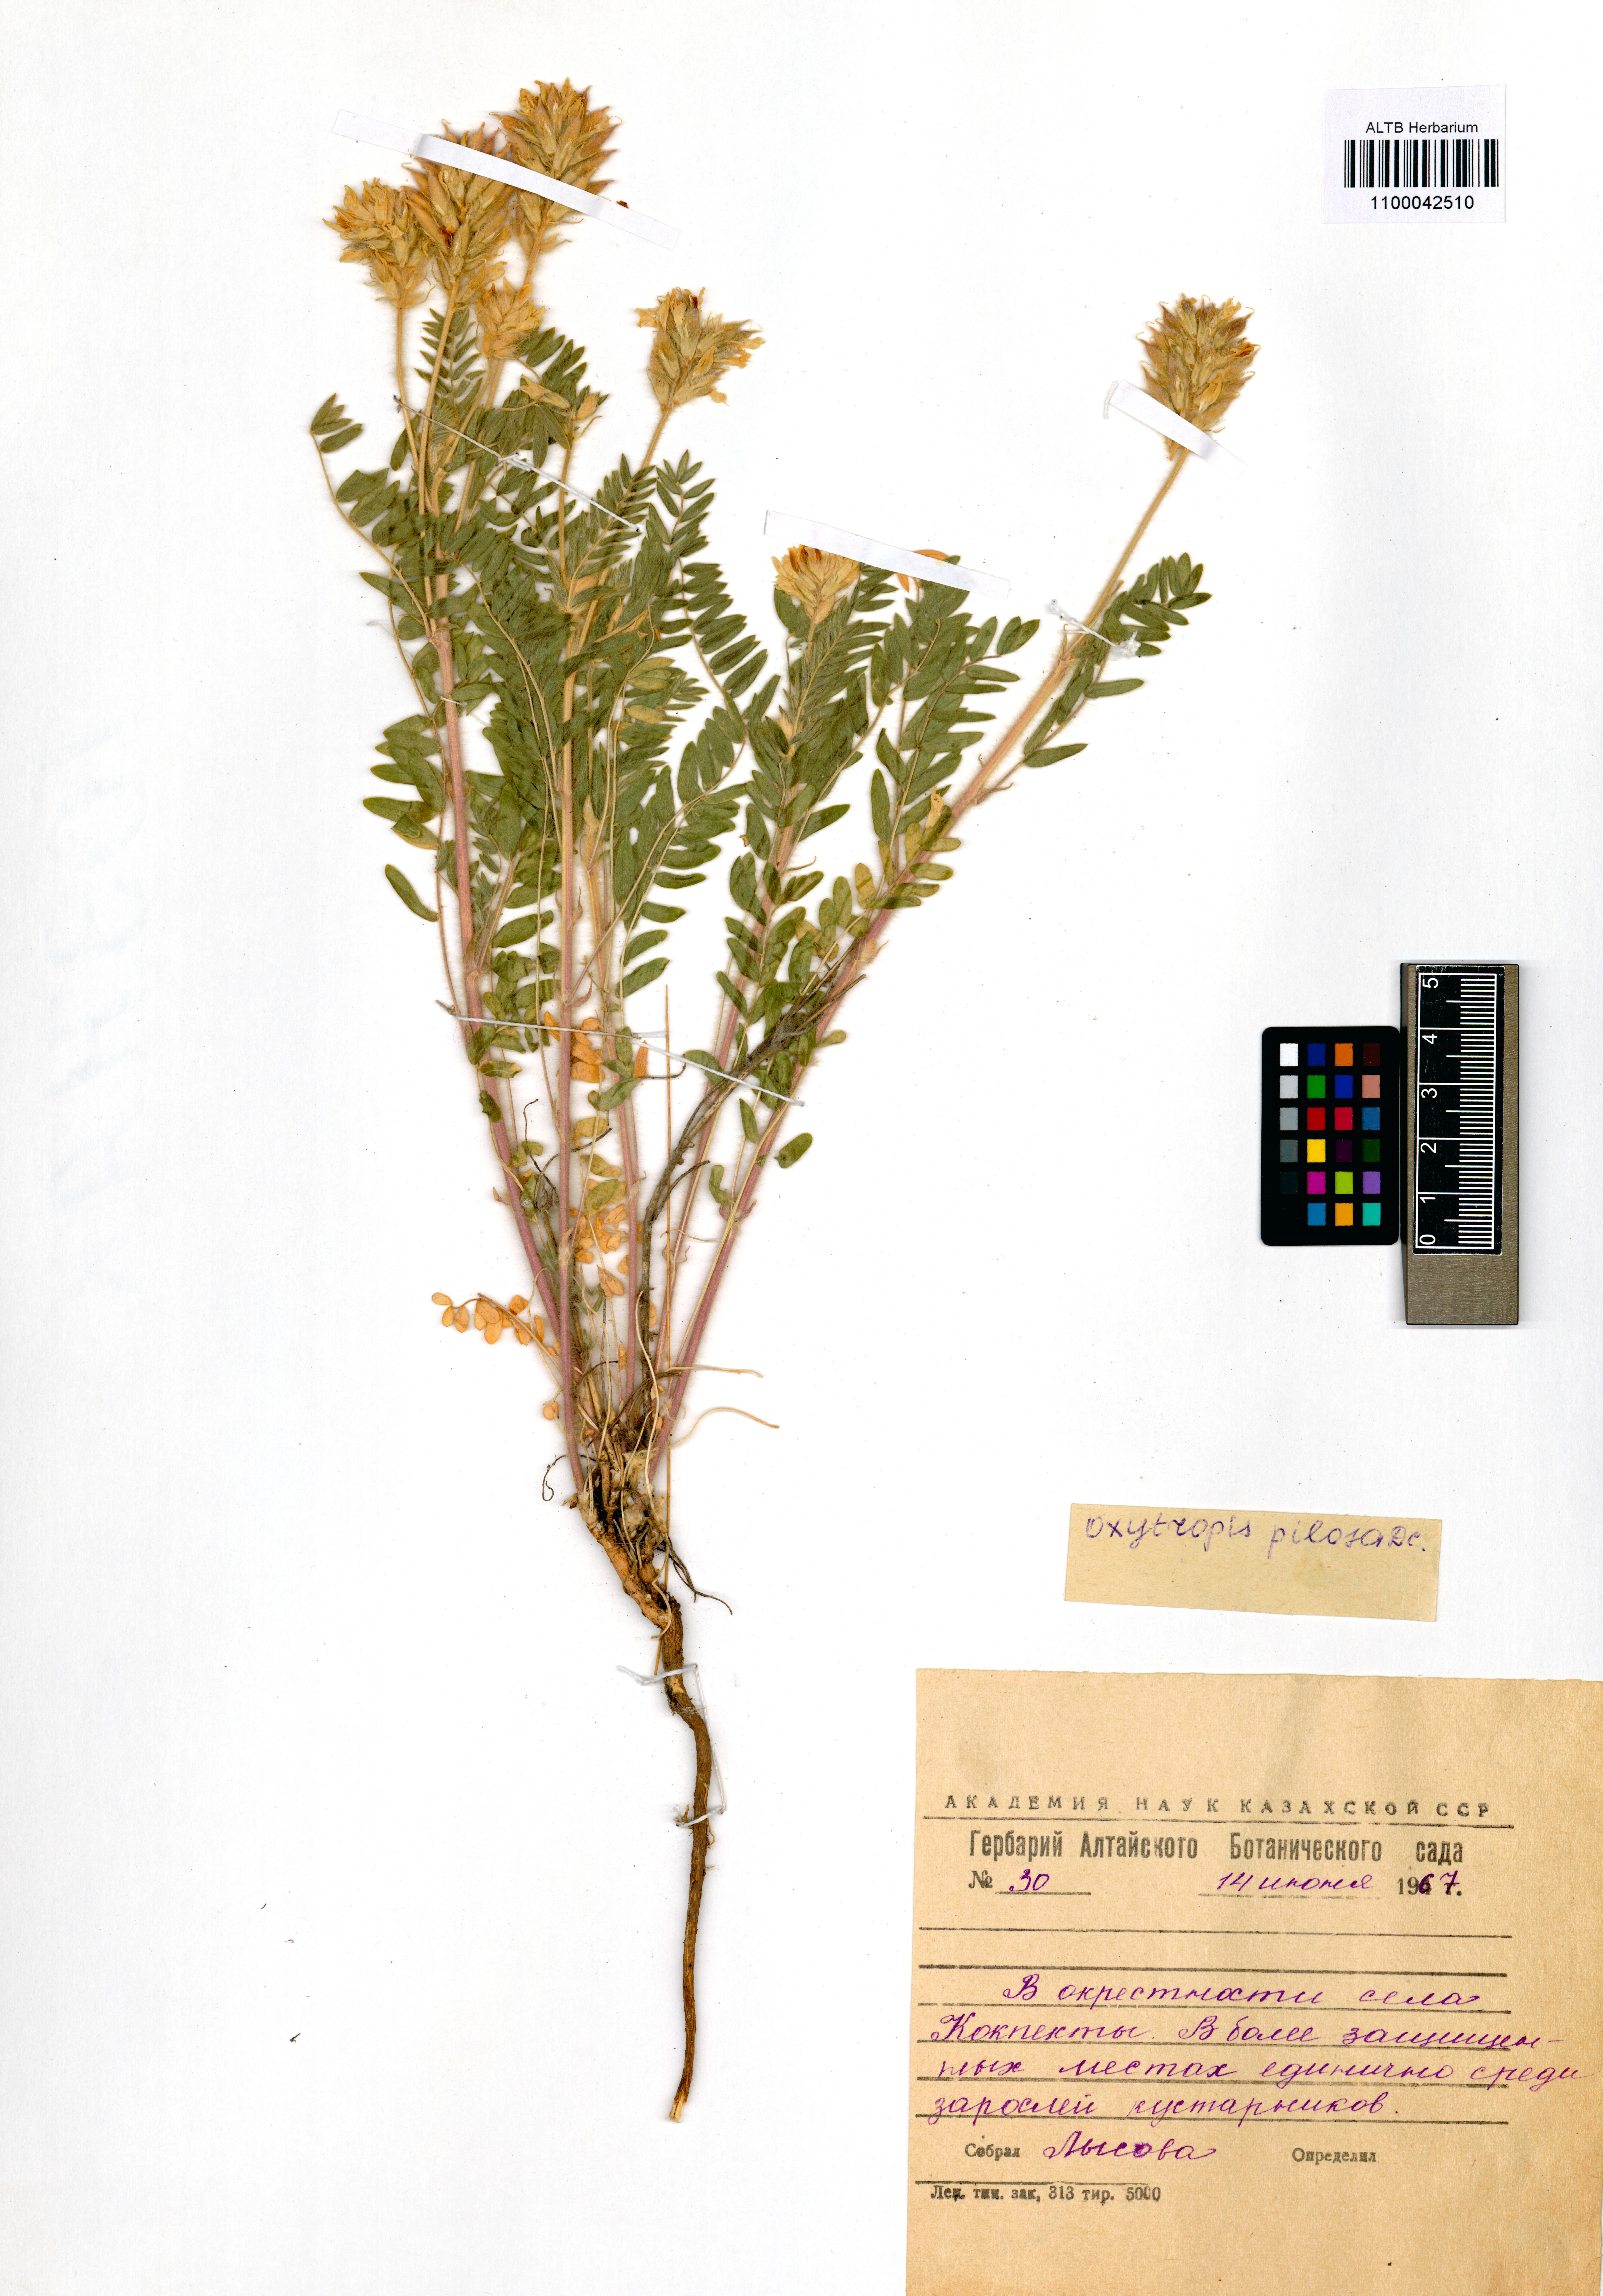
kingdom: Plantae
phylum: Tracheophyta
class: Magnoliopsida
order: Fabales
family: Fabaceae
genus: Oxytropis
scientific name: Oxytropis pilosa
